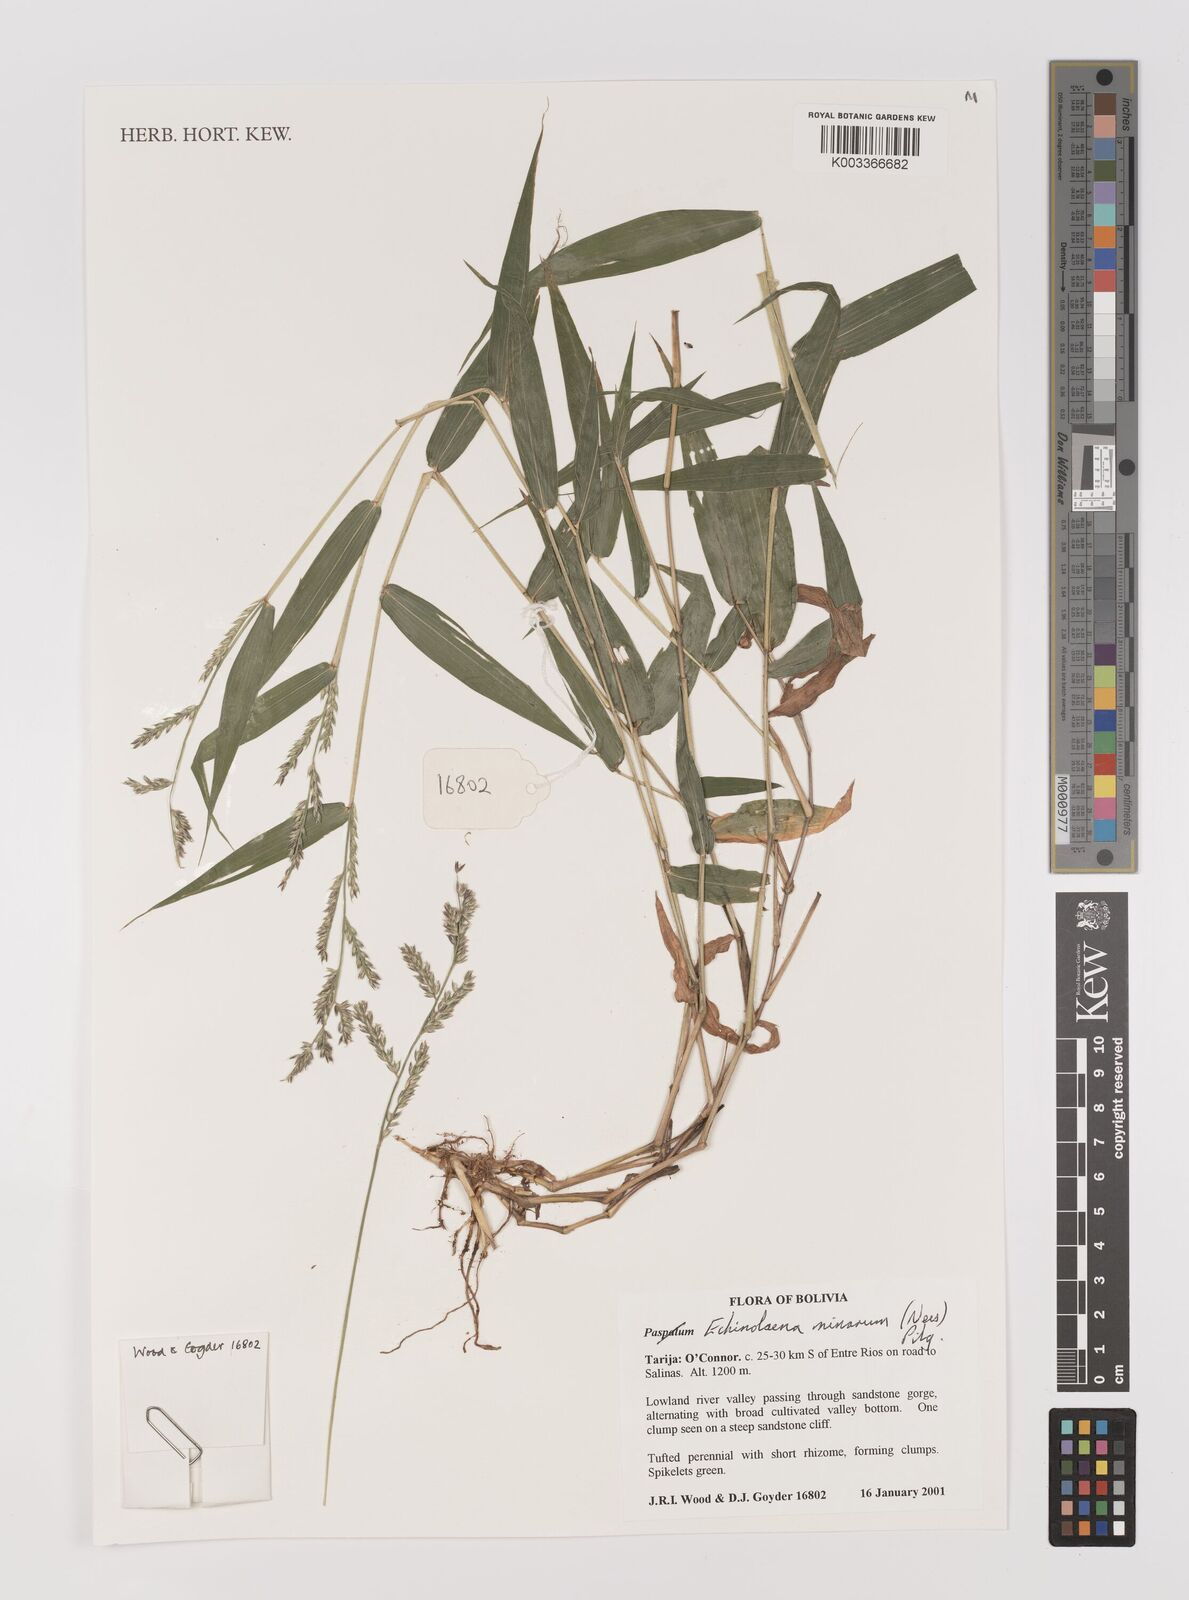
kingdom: Plantae
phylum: Tracheophyta
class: Liliopsida
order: Poales
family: Poaceae
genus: Oedochloa
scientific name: Oedochloa minarum
